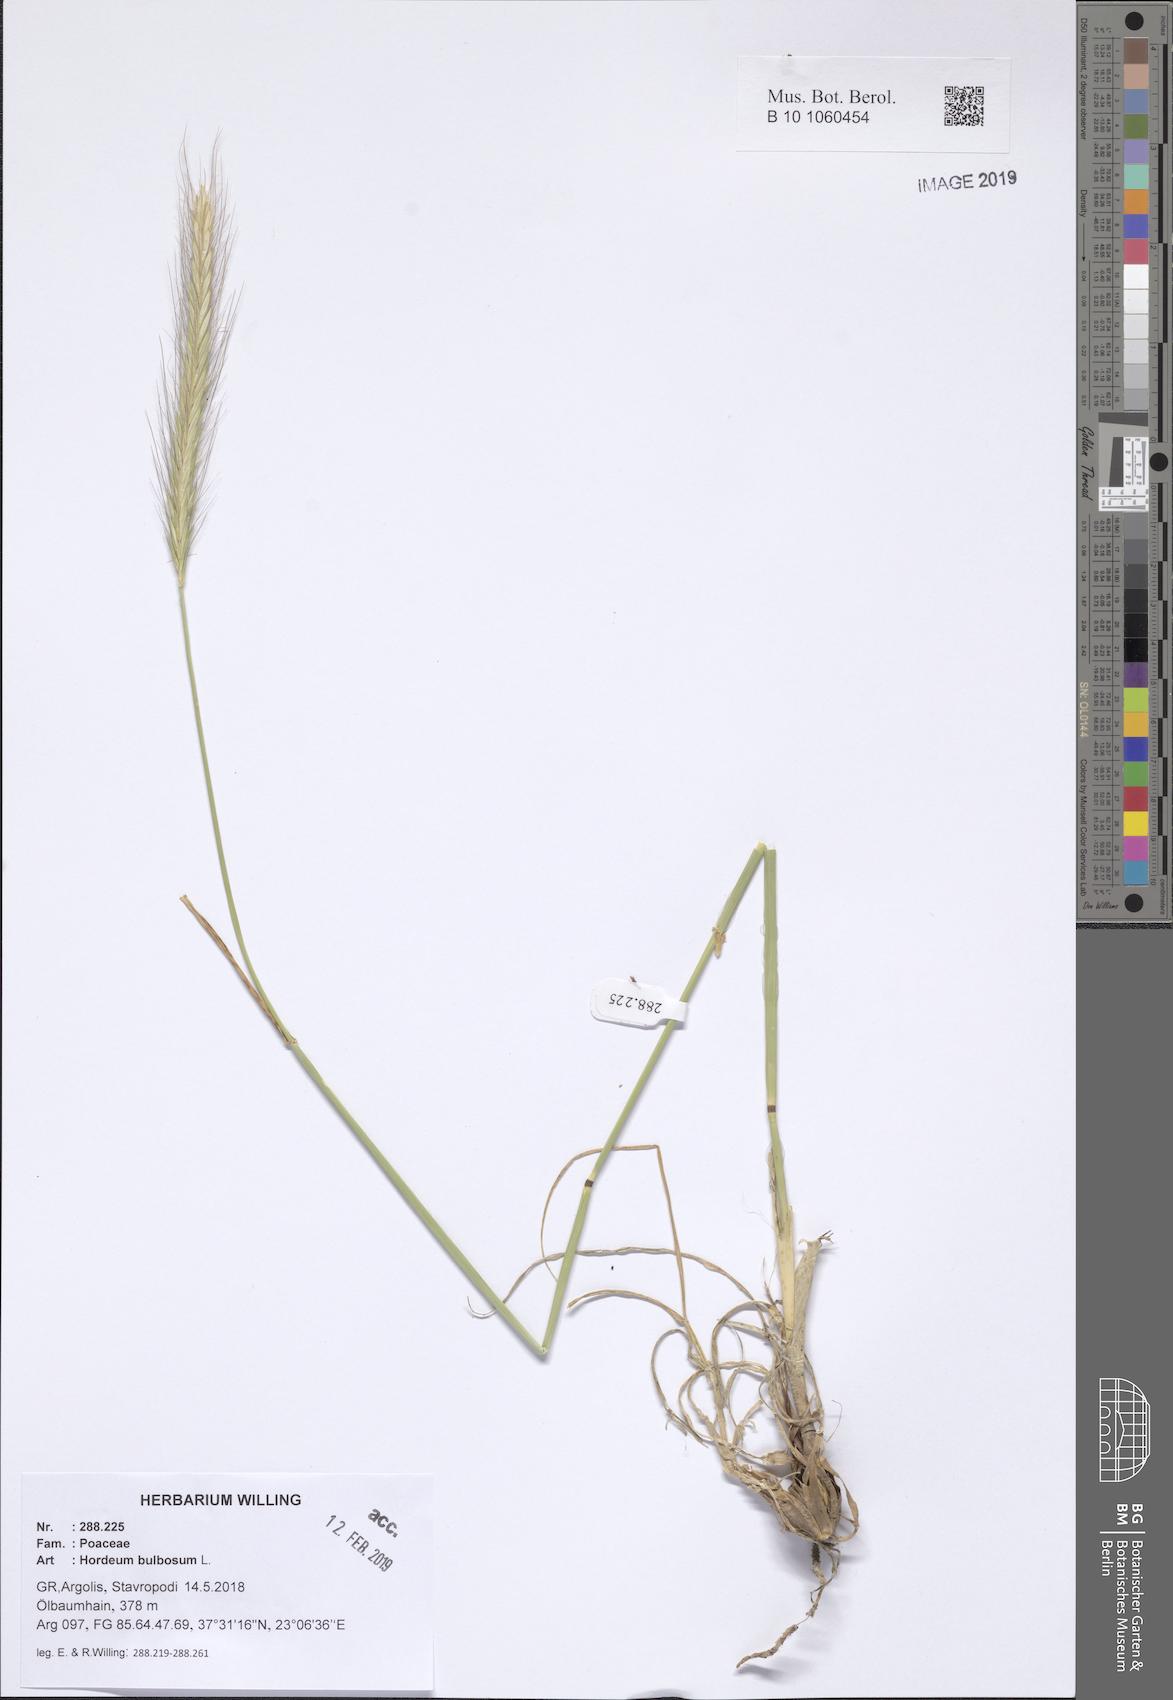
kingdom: Plantae
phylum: Tracheophyta
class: Liliopsida
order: Poales
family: Poaceae
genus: Hordeum
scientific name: Hordeum bulbosum
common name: Bulbous barley
